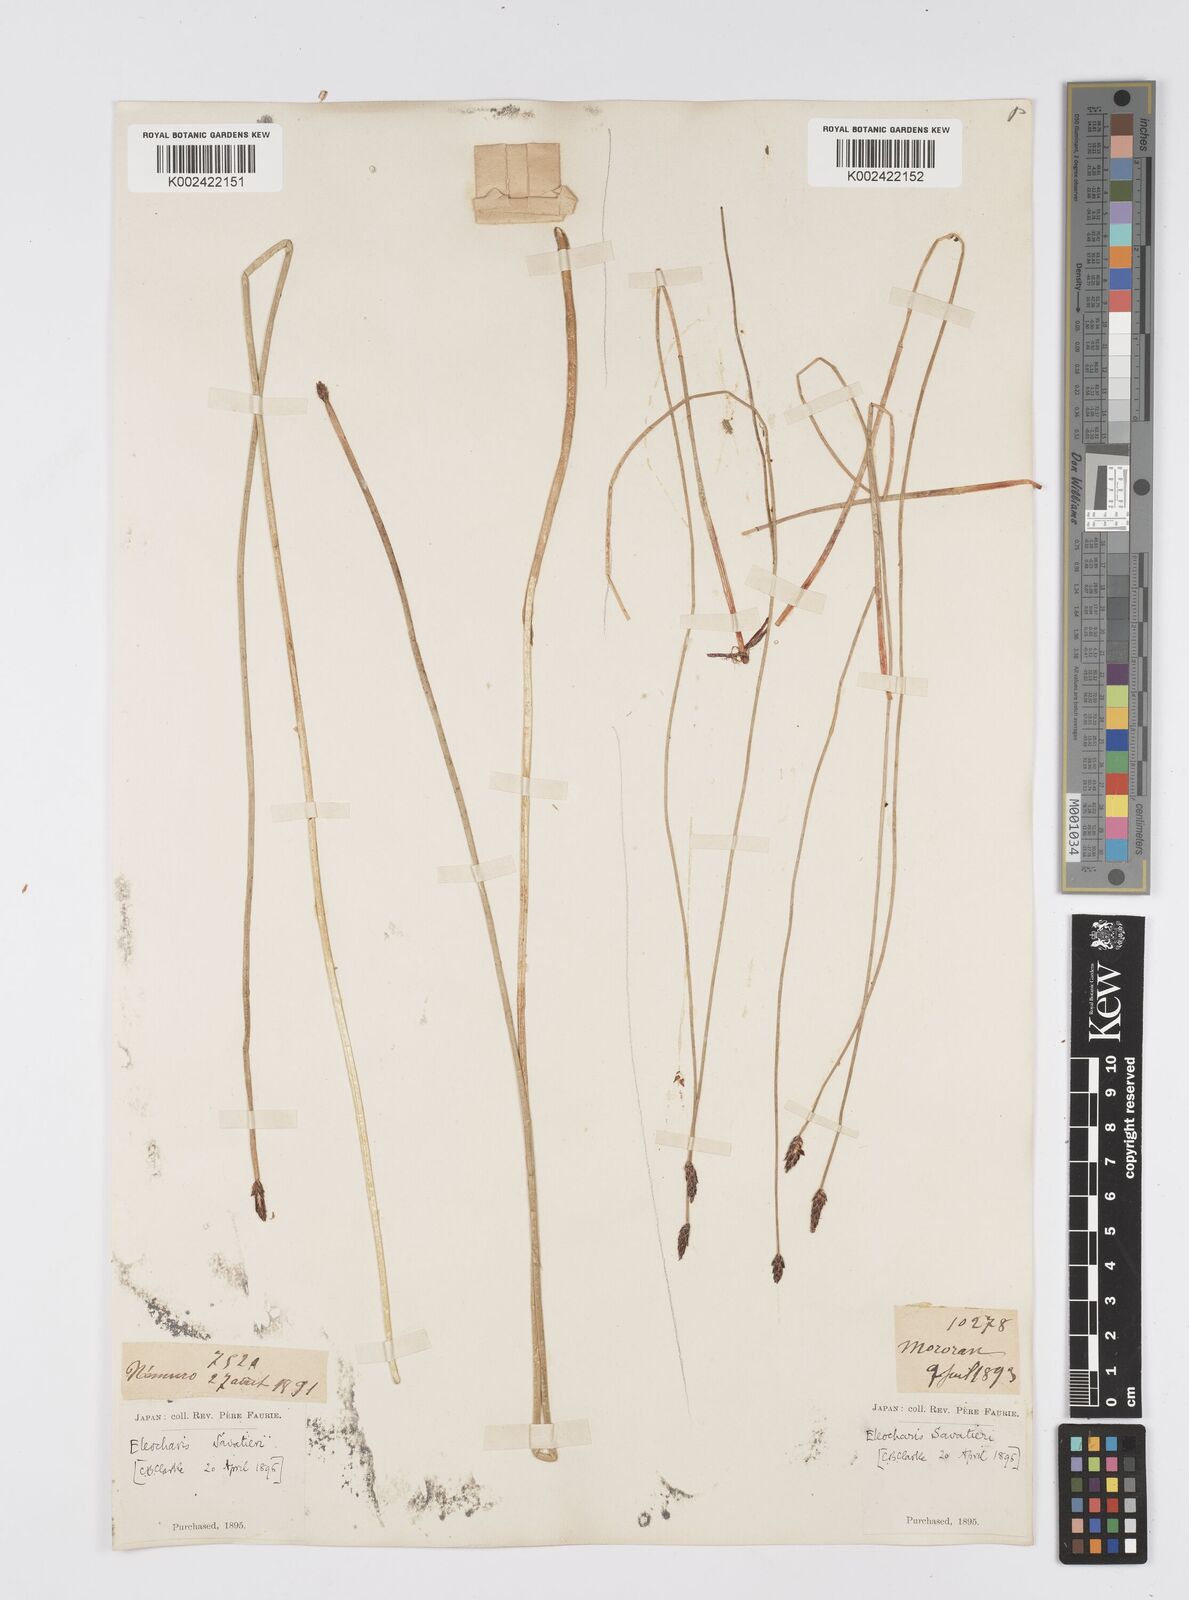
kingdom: Plantae
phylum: Tracheophyta
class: Liliopsida
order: Poales
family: Cyperaceae
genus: Eleocharis
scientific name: Eleocharis kamtschatica
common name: Kamchatka spikerush
